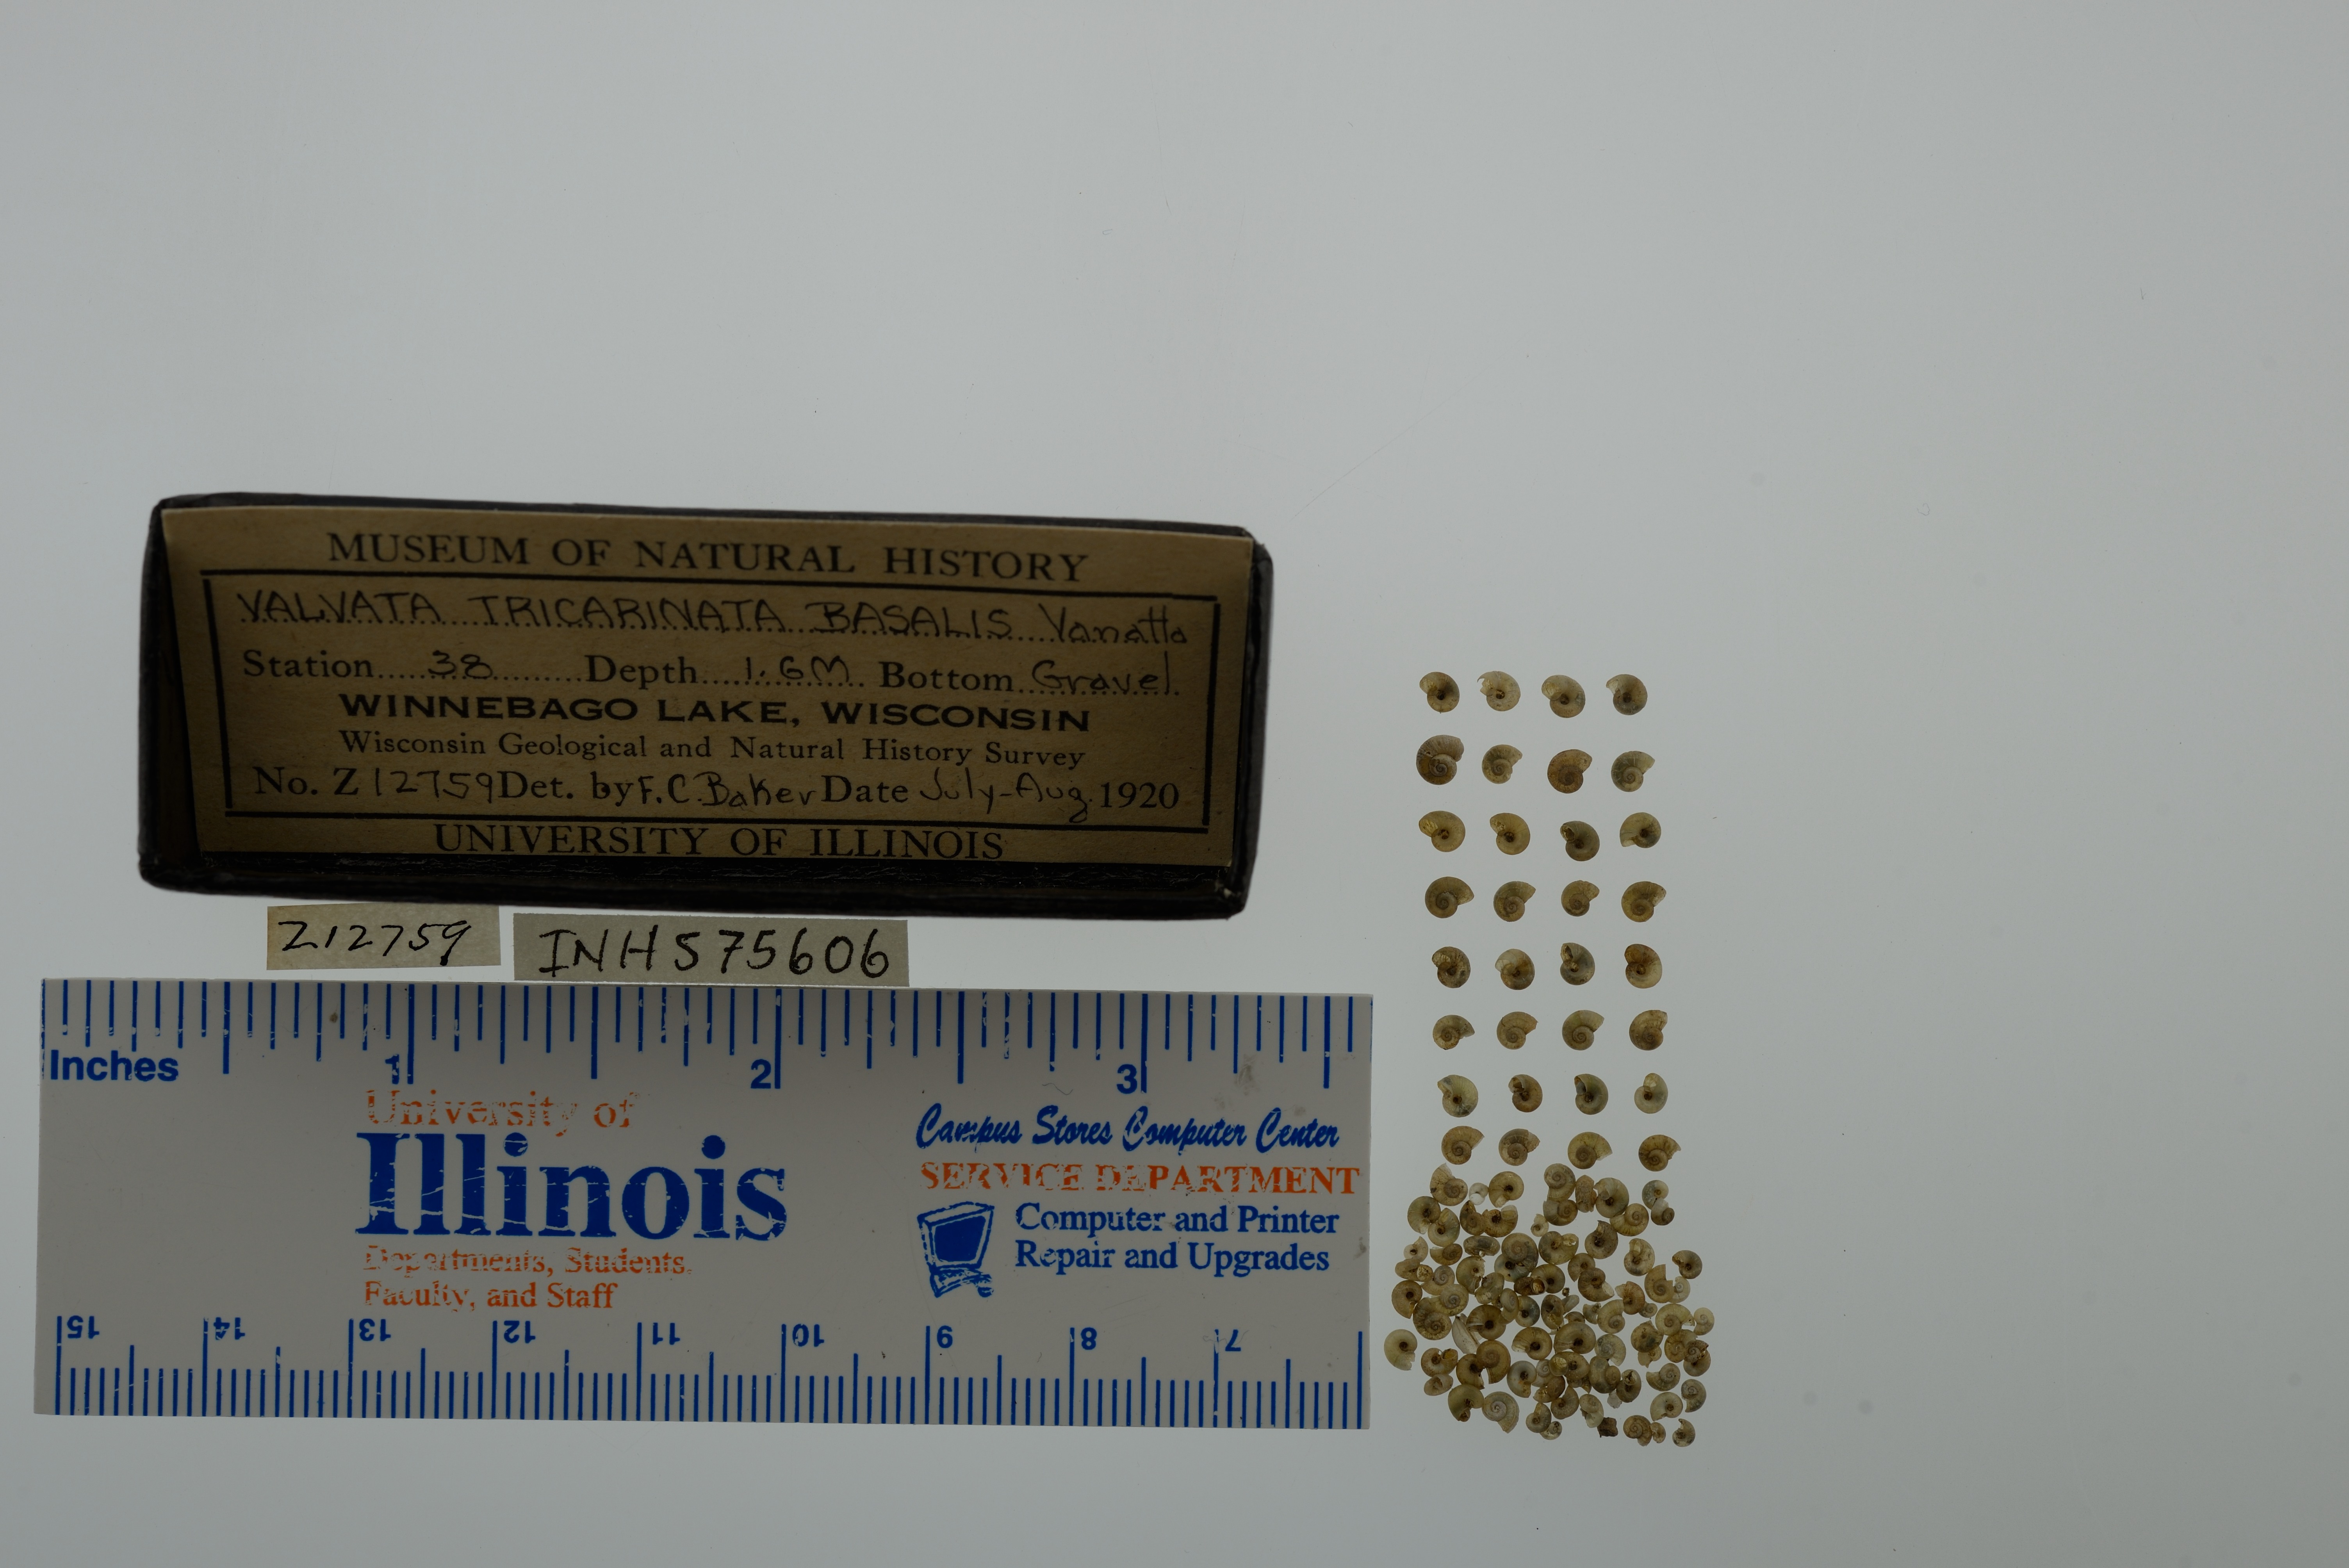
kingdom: Animalia
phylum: Mollusca
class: Gastropoda
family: Valvatidae
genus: Valvata
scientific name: Valvata tricarinata
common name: Three-ridge valvata
